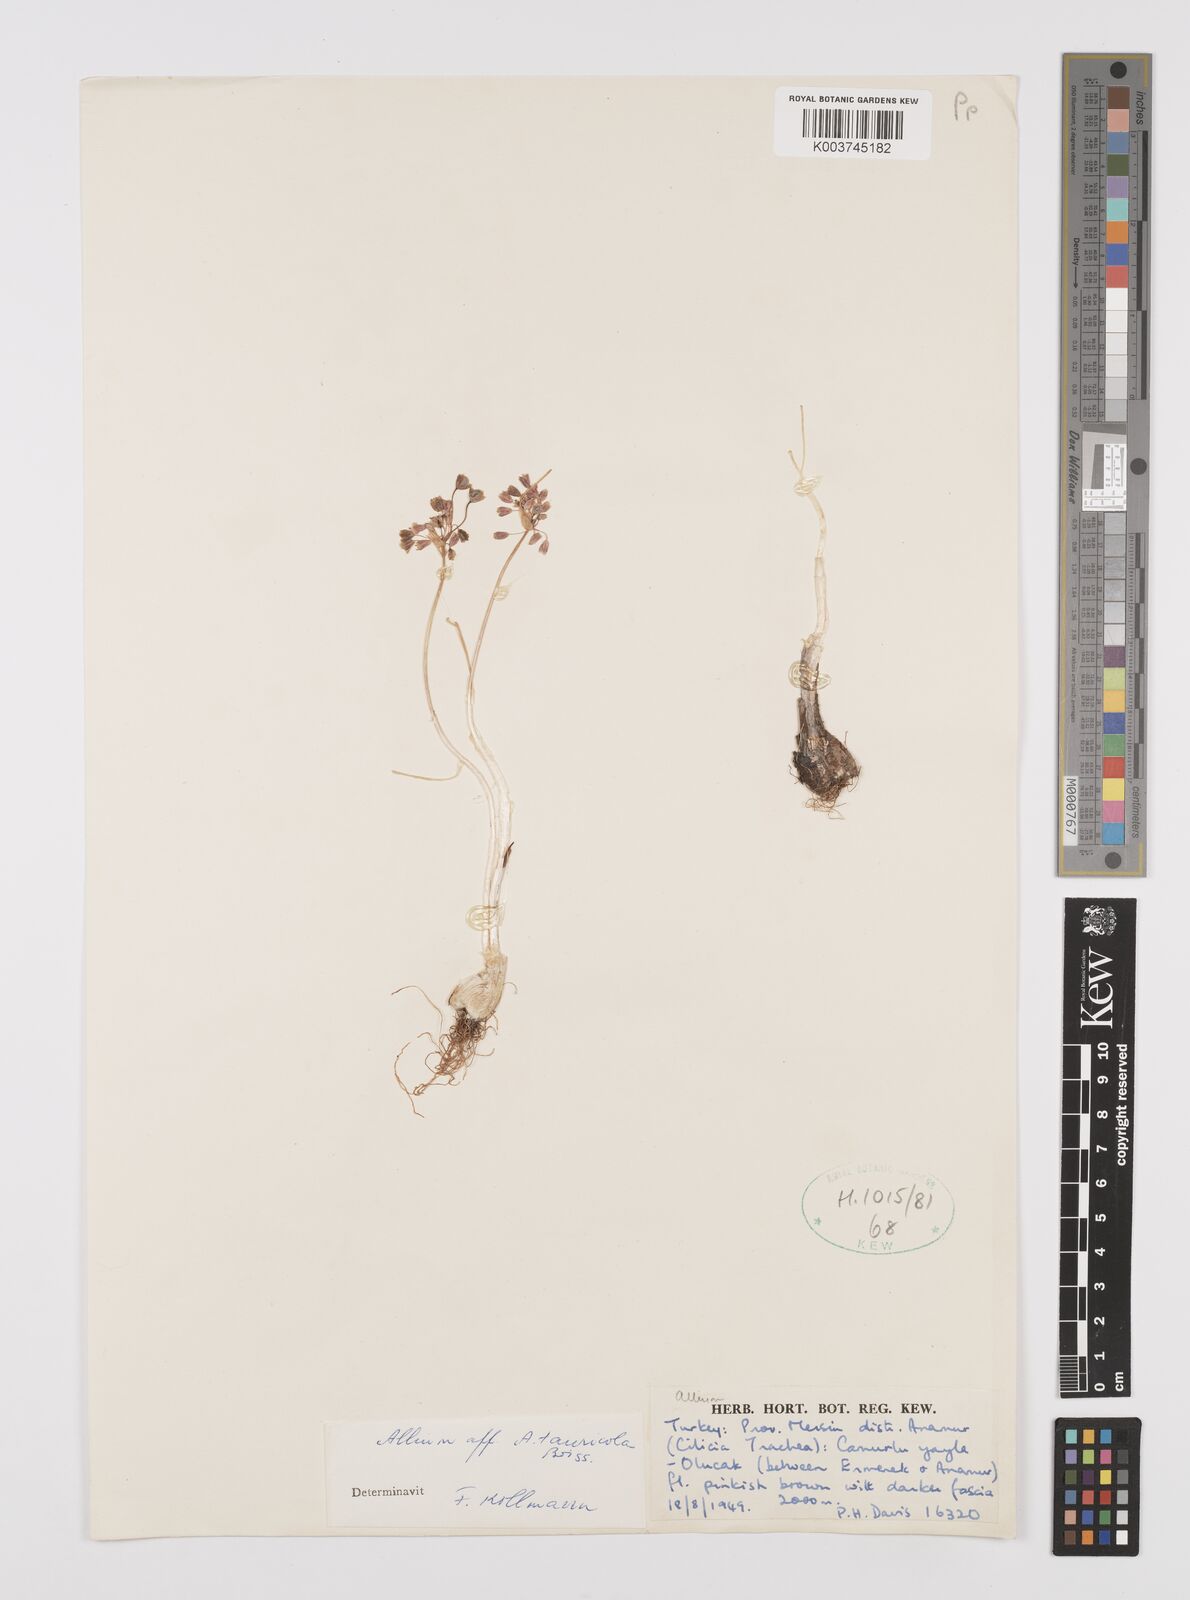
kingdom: Plantae
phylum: Tracheophyta
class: Liliopsida
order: Asparagales
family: Amaryllidaceae
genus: Allium
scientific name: Allium tauricola
